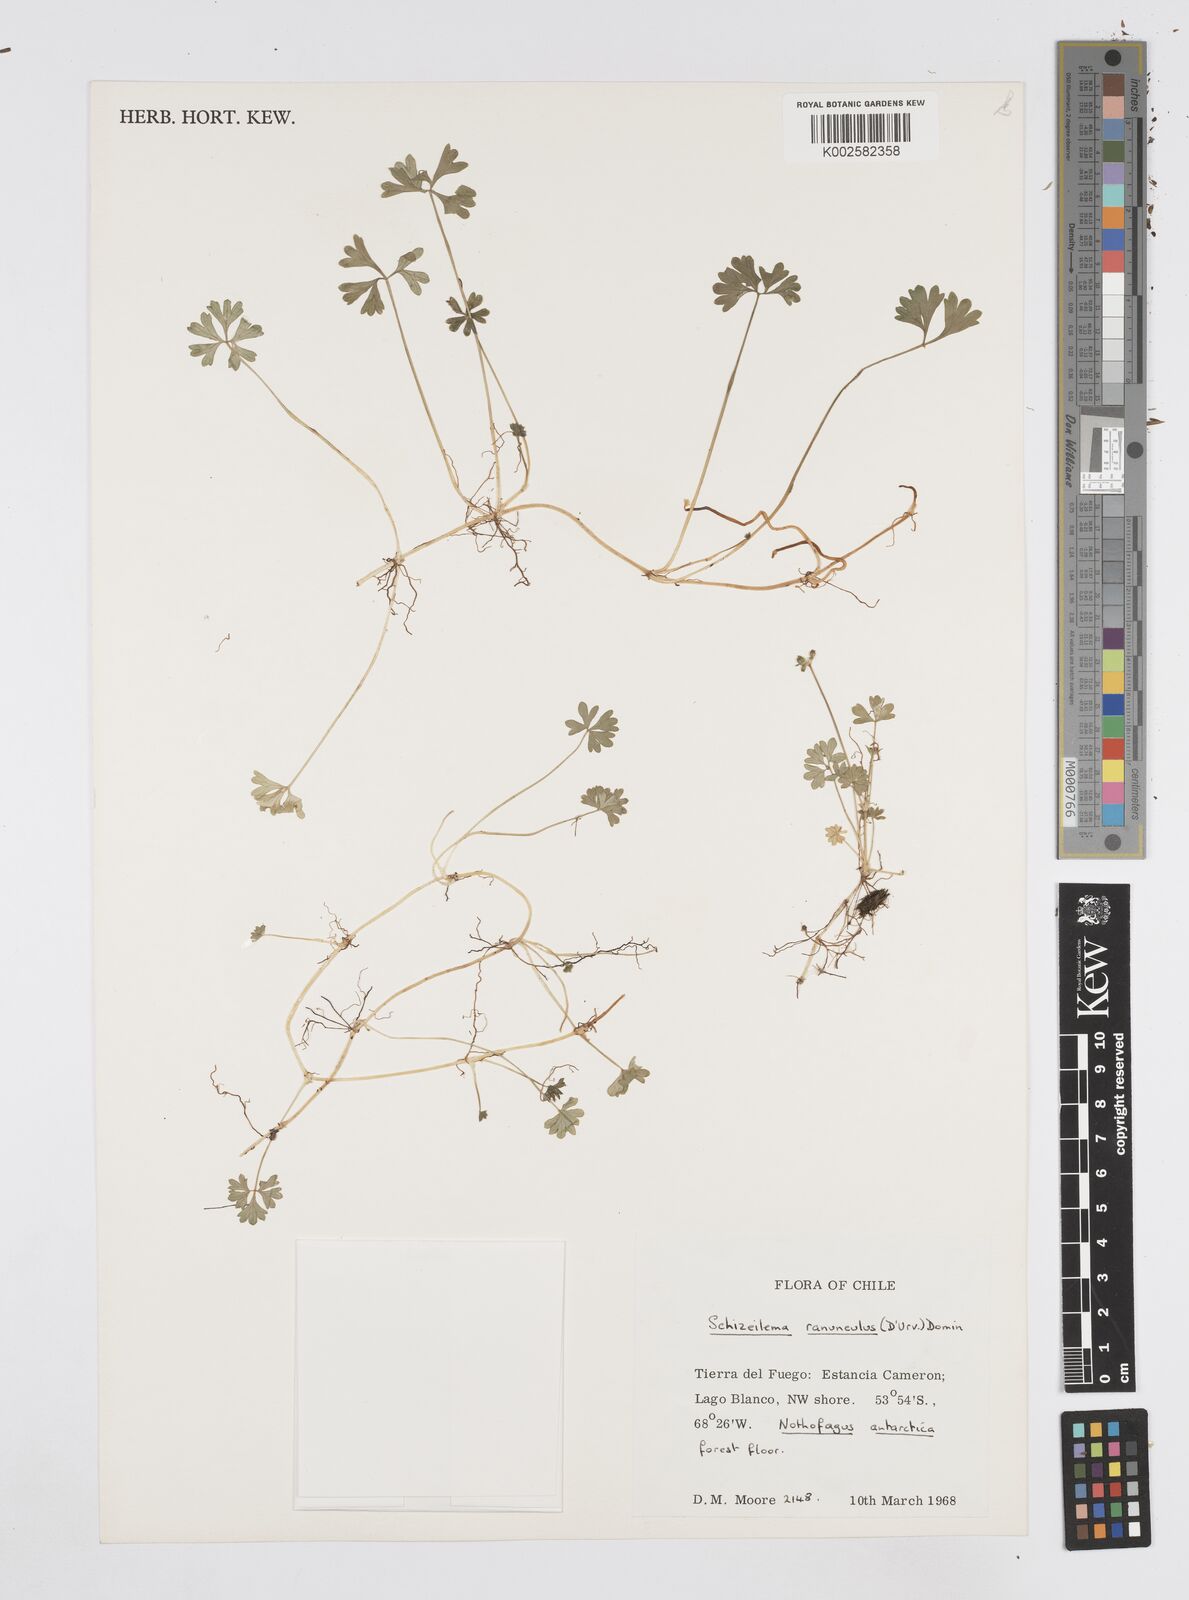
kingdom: Plantae
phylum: Tracheophyta
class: Magnoliopsida
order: Apiales
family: Apiaceae
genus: Azorella
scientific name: Azorella ranunculus
